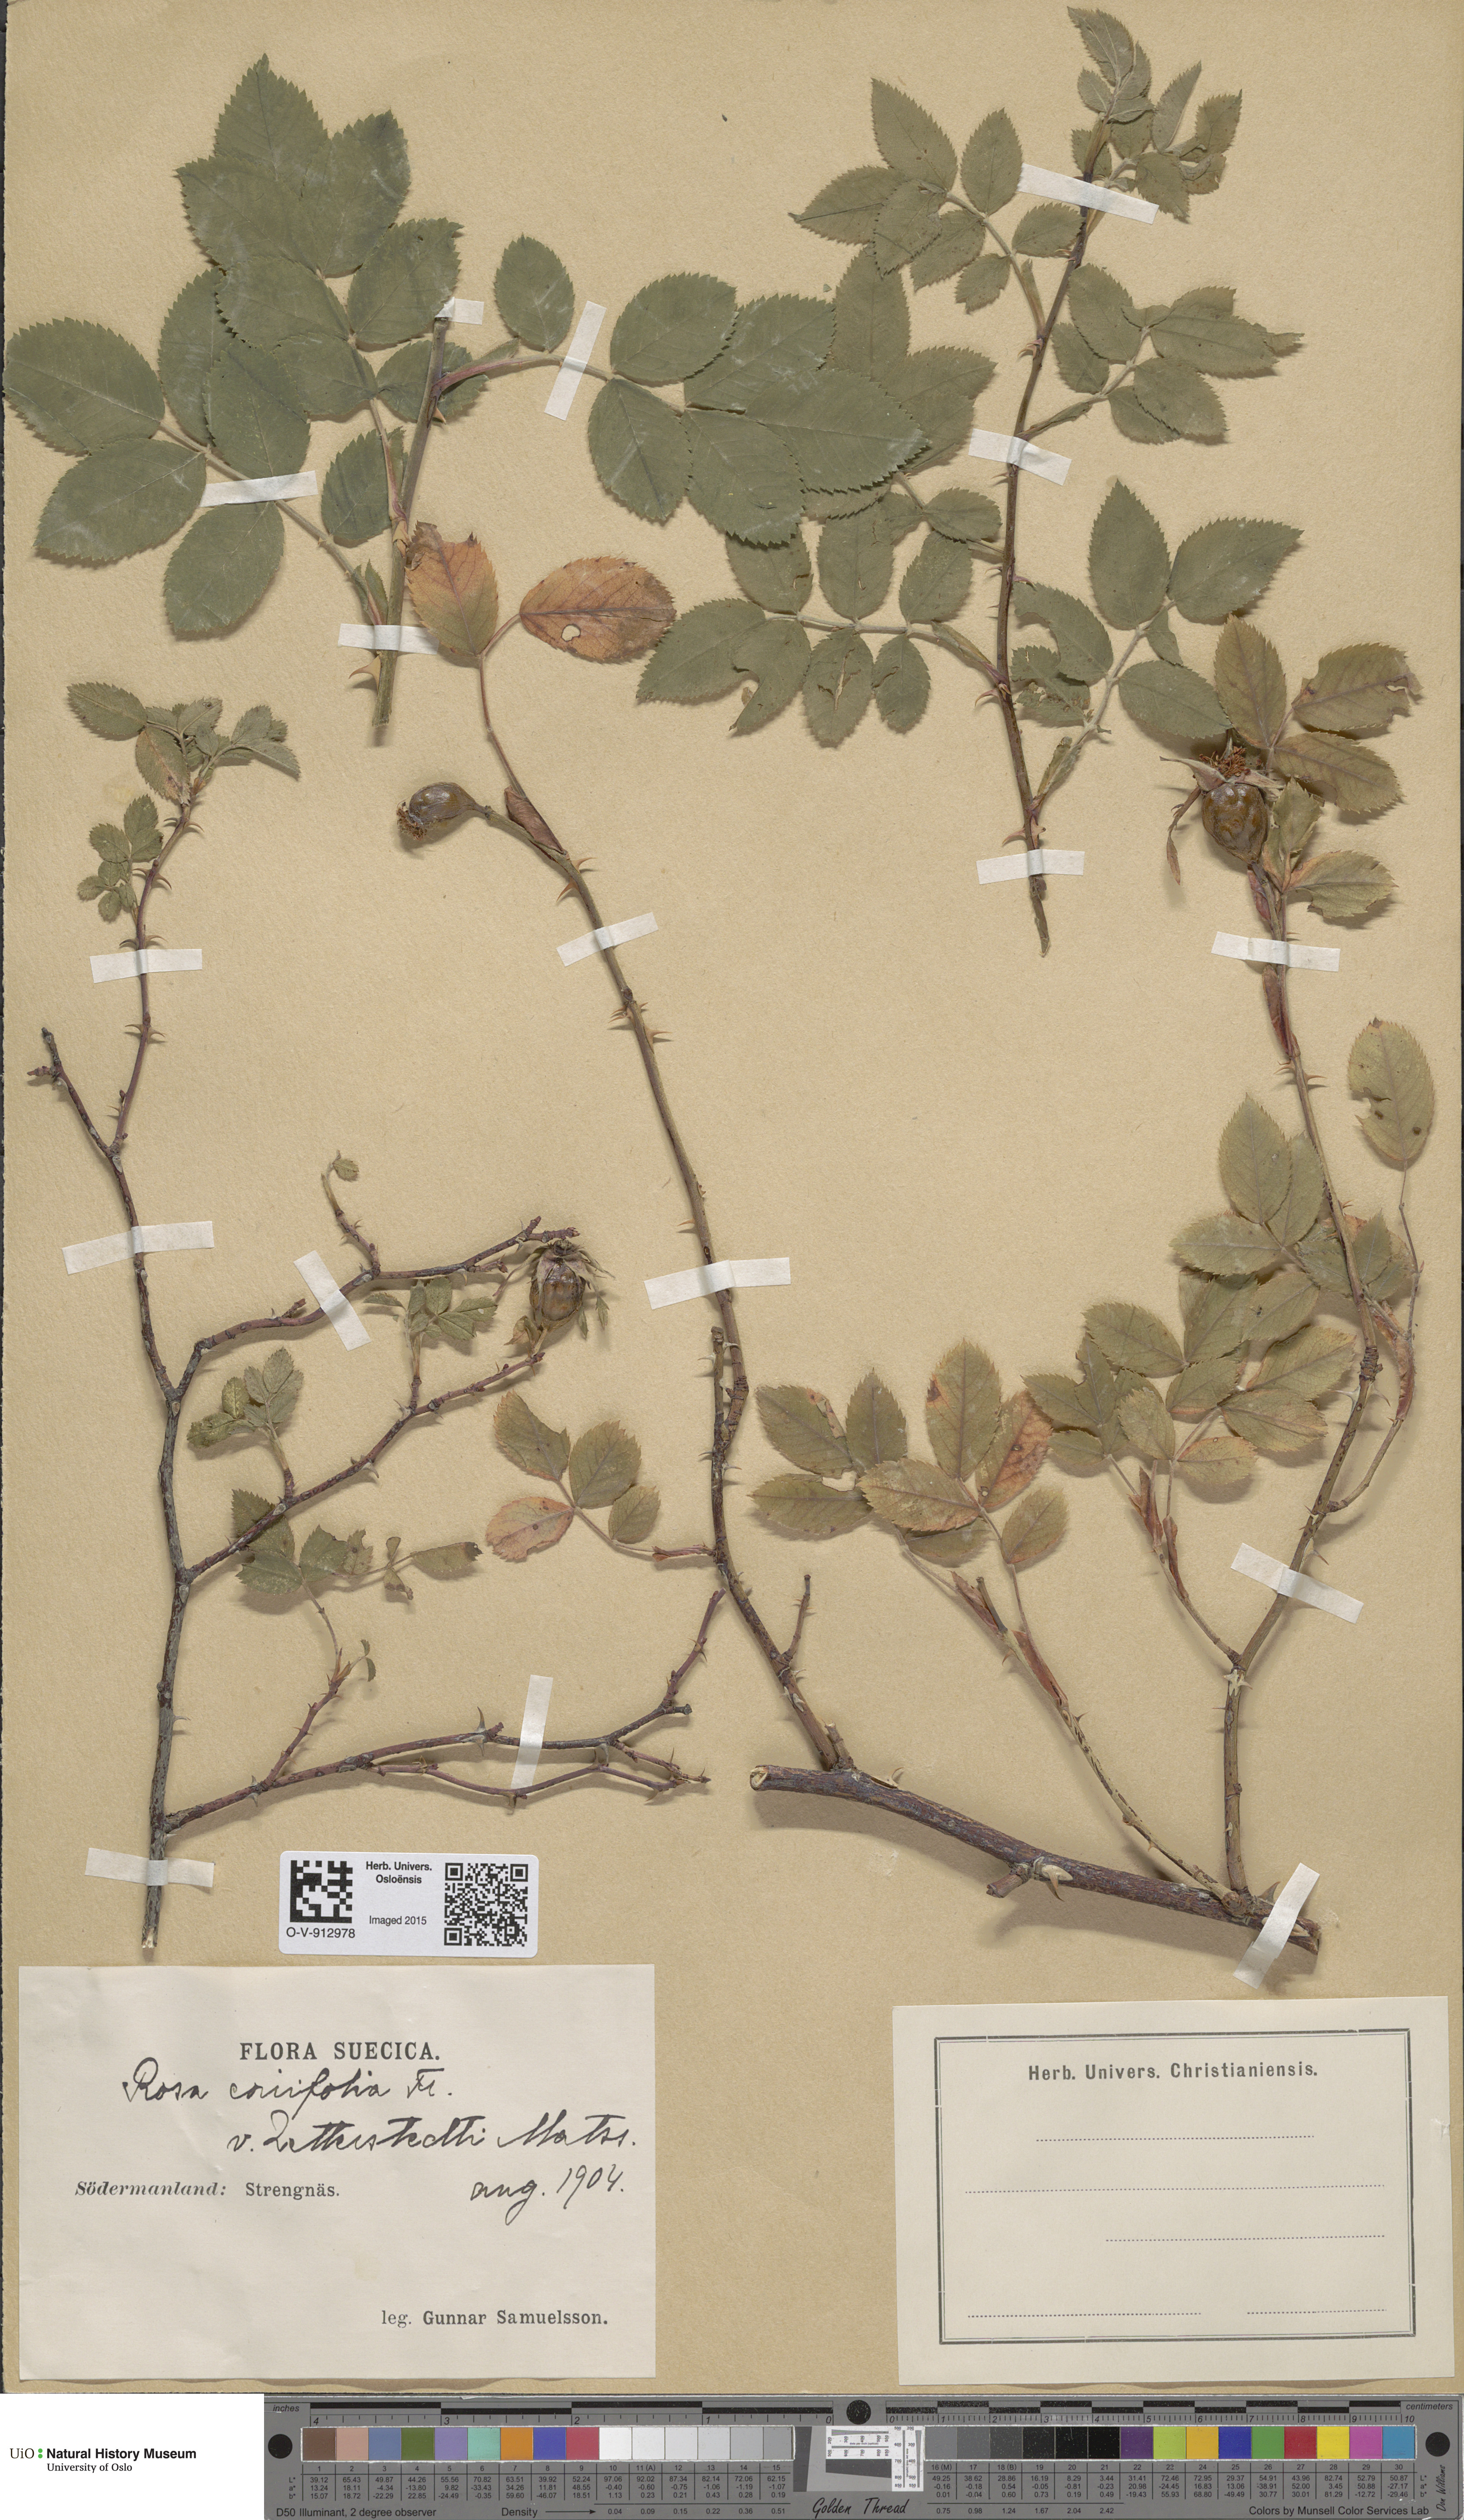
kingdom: Plantae
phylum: Tracheophyta
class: Magnoliopsida
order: Rosales
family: Rosaceae
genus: Rosa
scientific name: Rosa caesia
